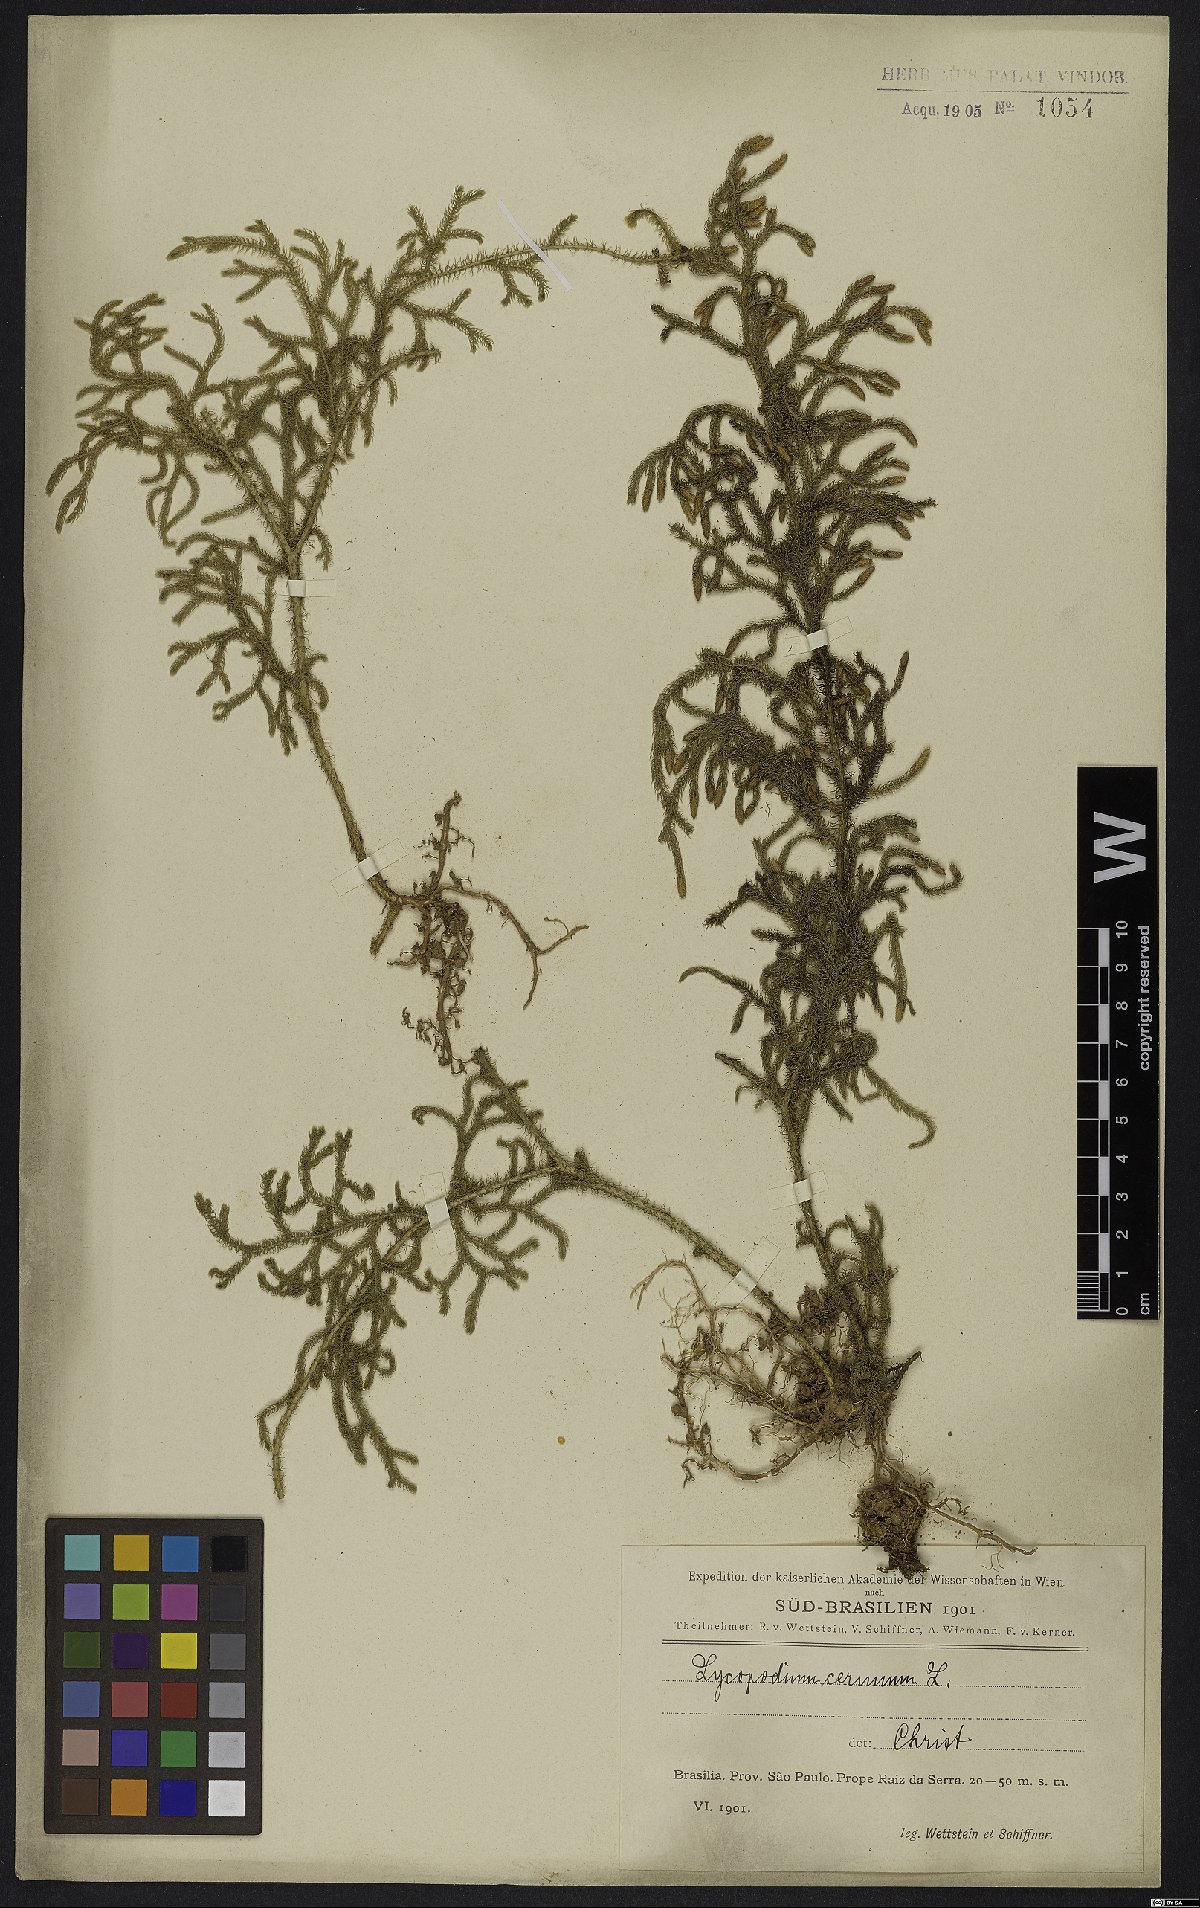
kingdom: Plantae
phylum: Tracheophyta
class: Lycopodiopsida
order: Lycopodiales
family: Lycopodiaceae
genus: Palhinhaea
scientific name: Palhinhaea cernua
